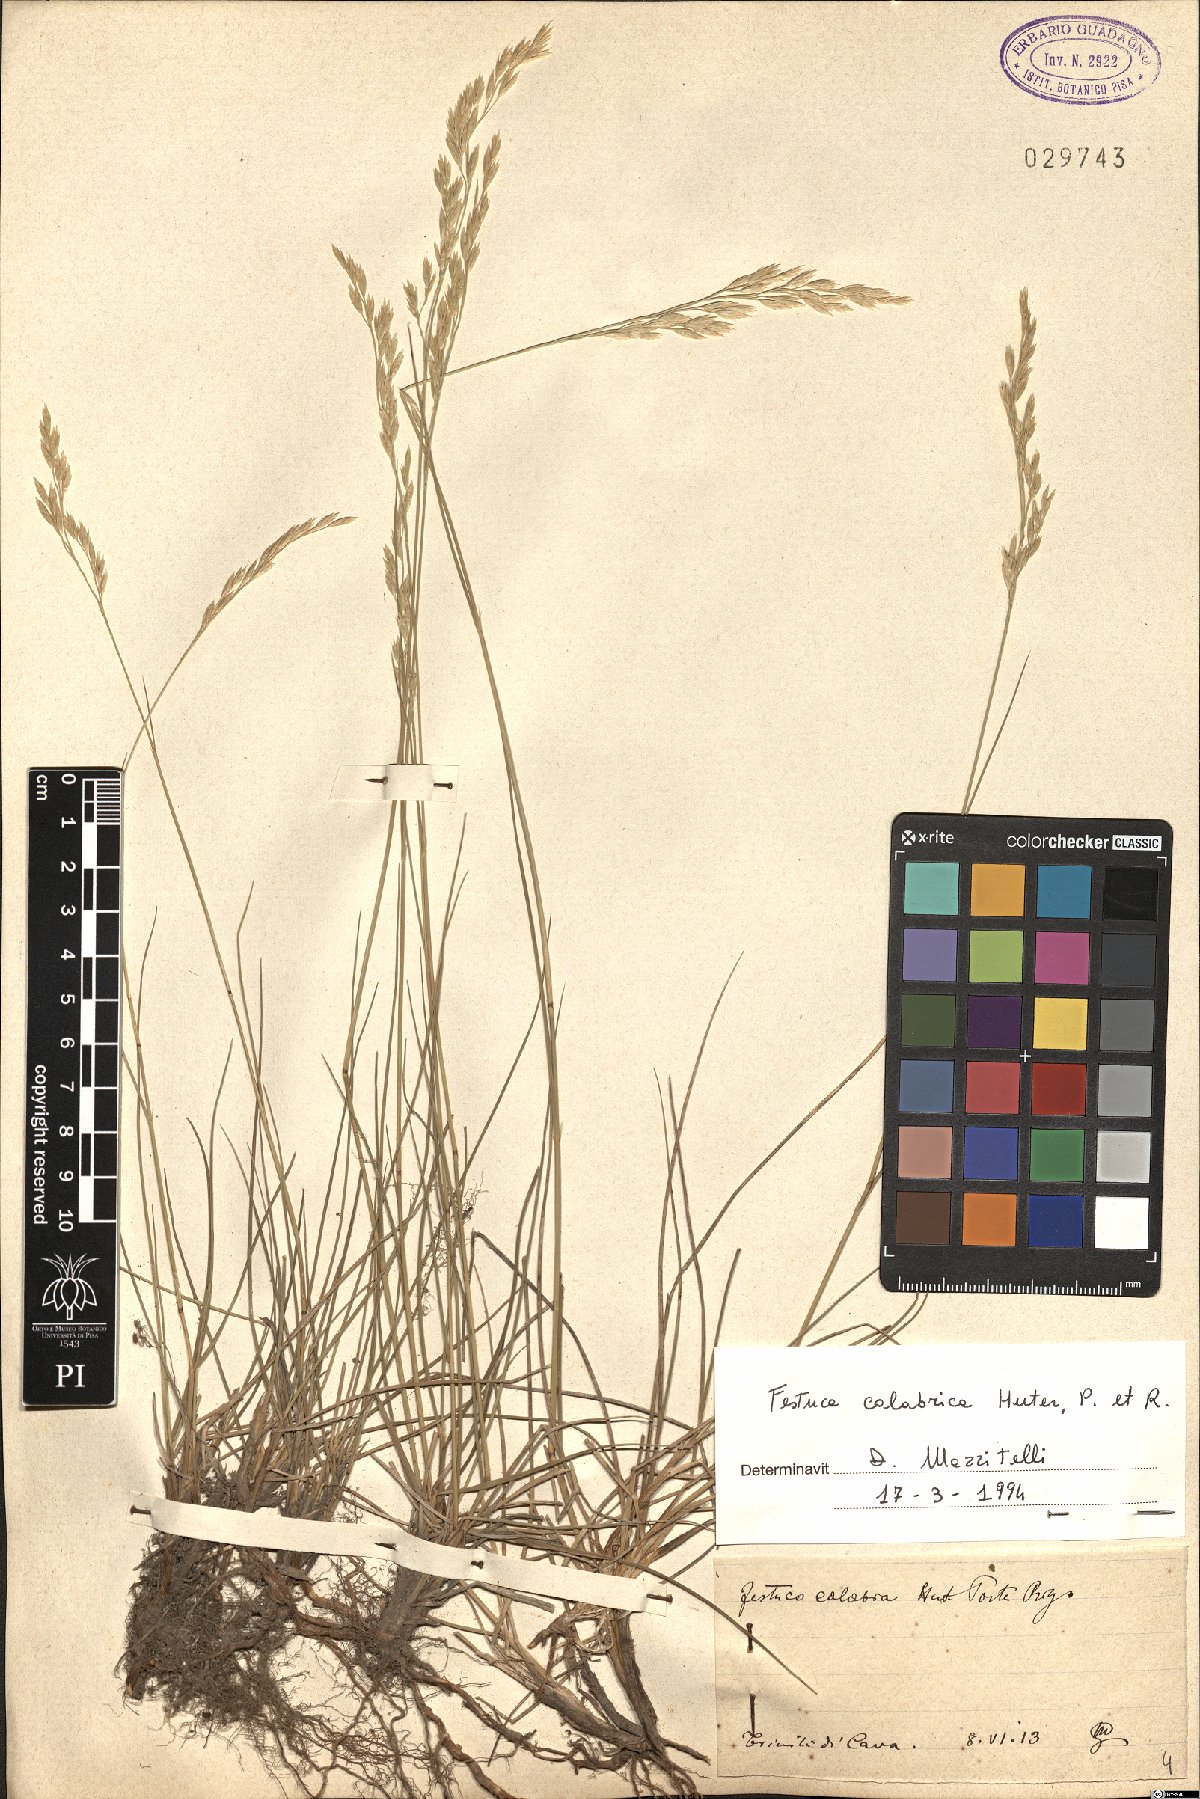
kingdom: Plantae
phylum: Tracheophyta
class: Liliopsida
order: Poales
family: Poaceae
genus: Festuca
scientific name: Festuca calabrica
